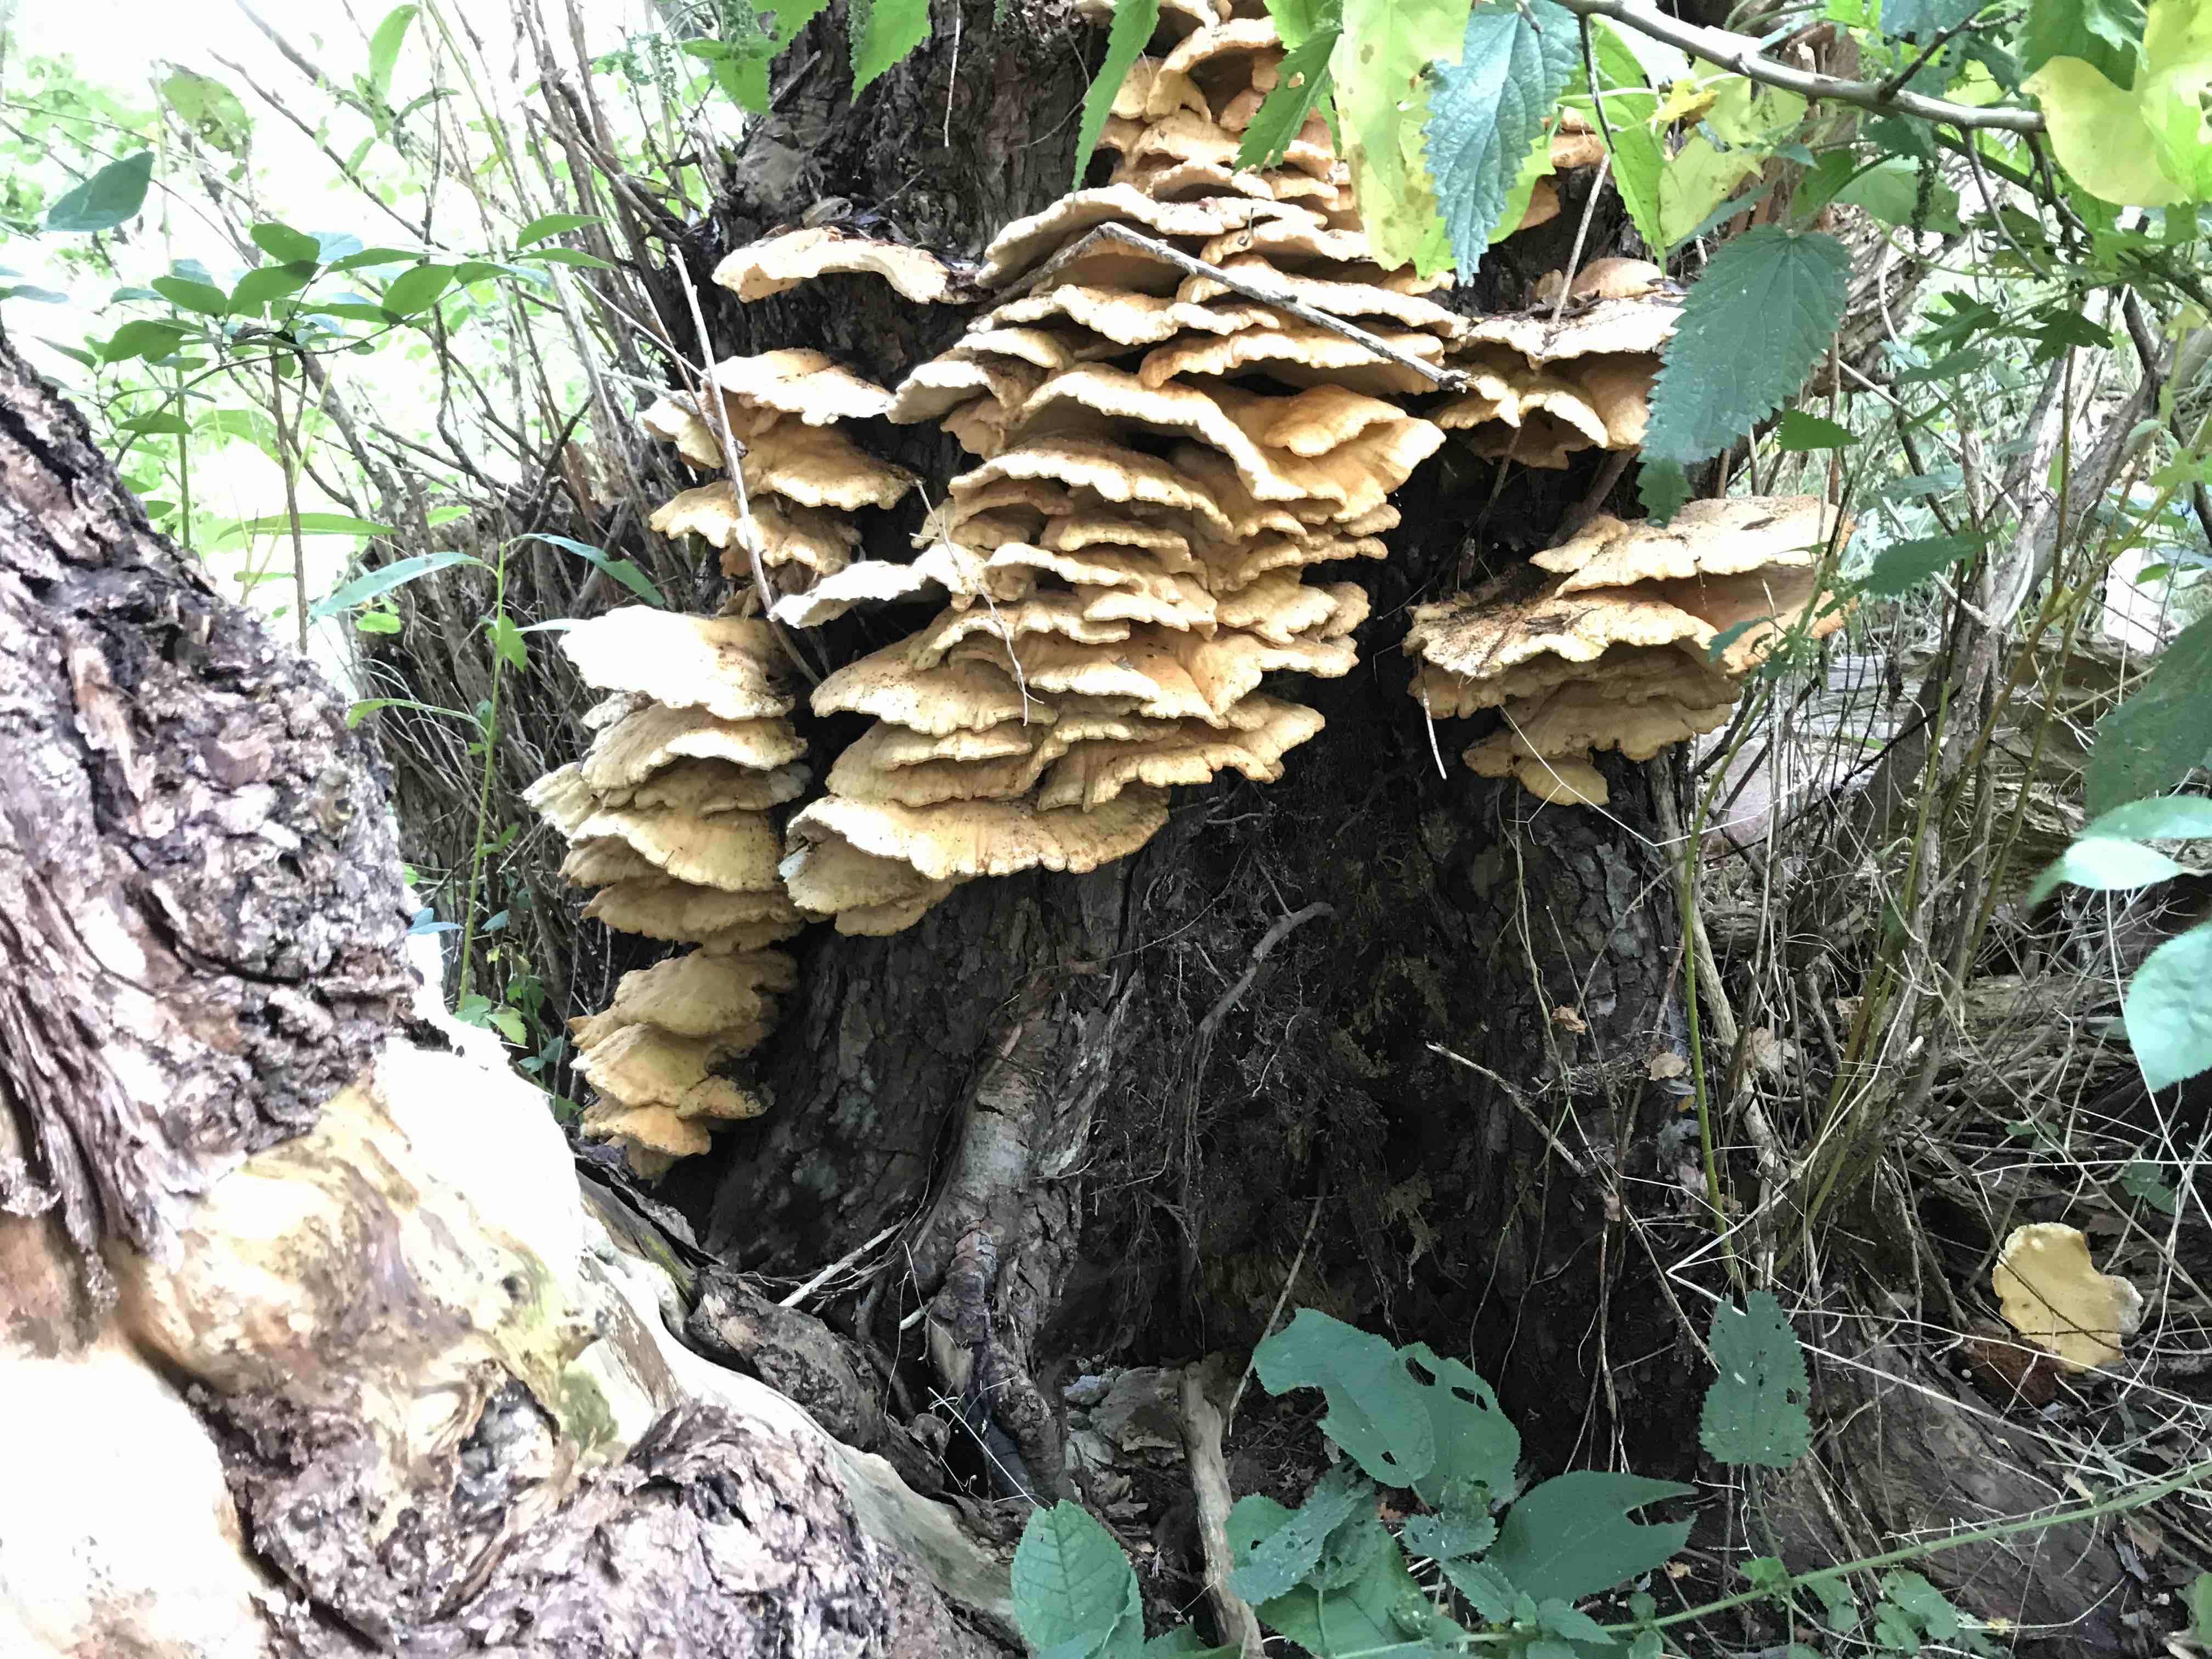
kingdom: Fungi
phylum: Basidiomycota
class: Agaricomycetes
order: Polyporales
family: Laetiporaceae
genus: Laetiporus
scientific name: Laetiporus sulphureus
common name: svovlporesvamp
